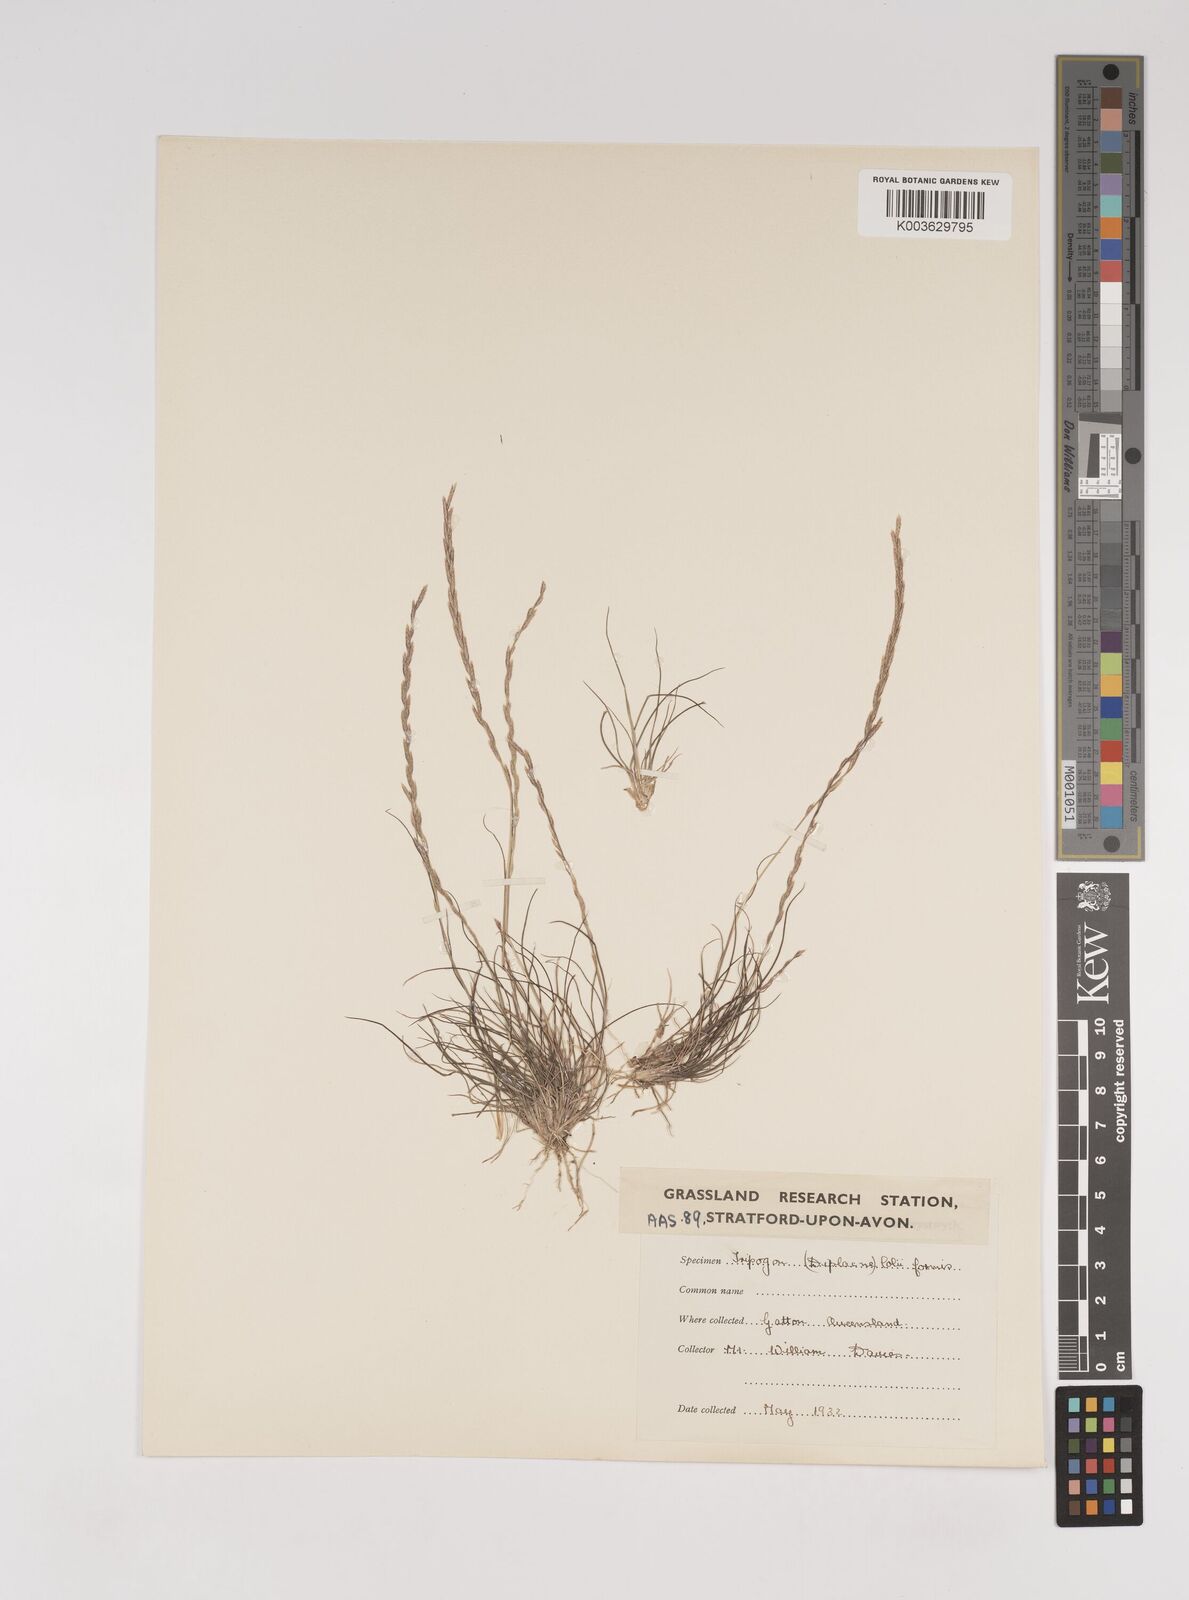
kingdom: Plantae
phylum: Tracheophyta
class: Liliopsida
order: Poales
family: Poaceae
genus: Tripogonella
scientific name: Tripogonella loliiformis
